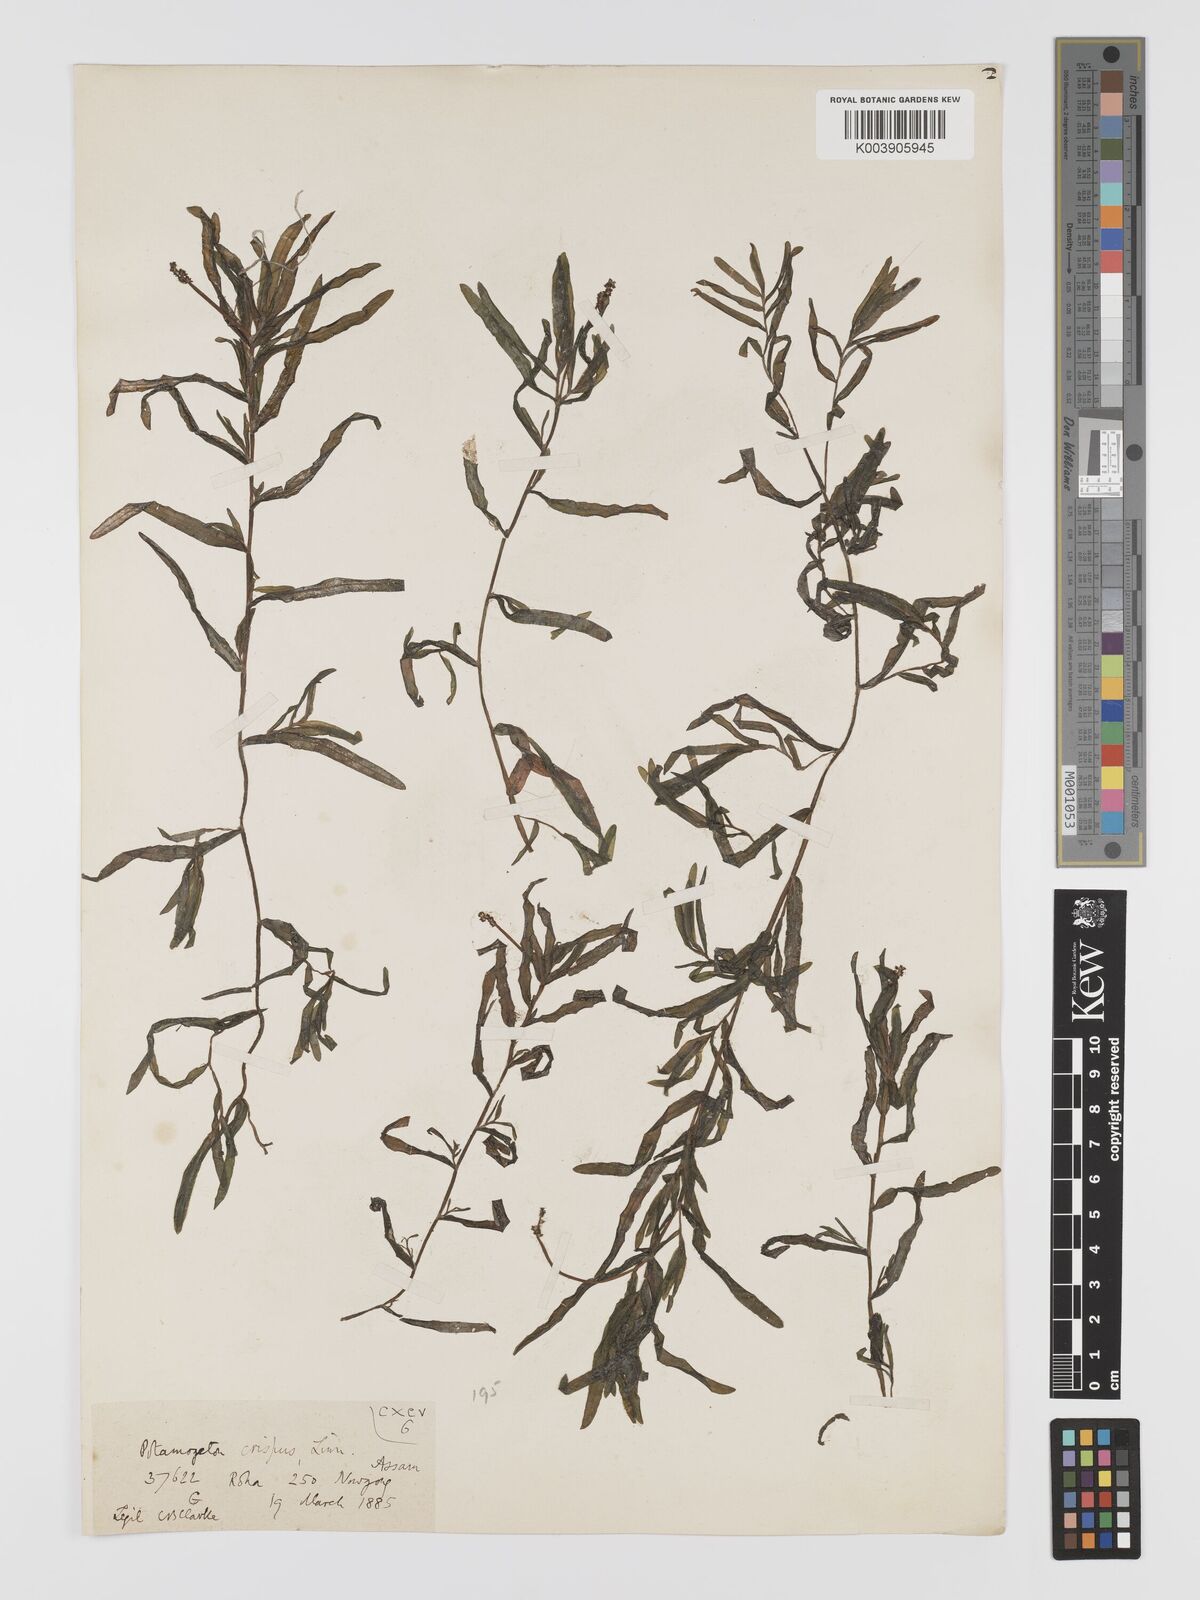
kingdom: Plantae
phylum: Tracheophyta
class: Liliopsida
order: Alismatales
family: Potamogetonaceae
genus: Potamogeton
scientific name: Potamogeton crispus
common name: Curled pondweed
